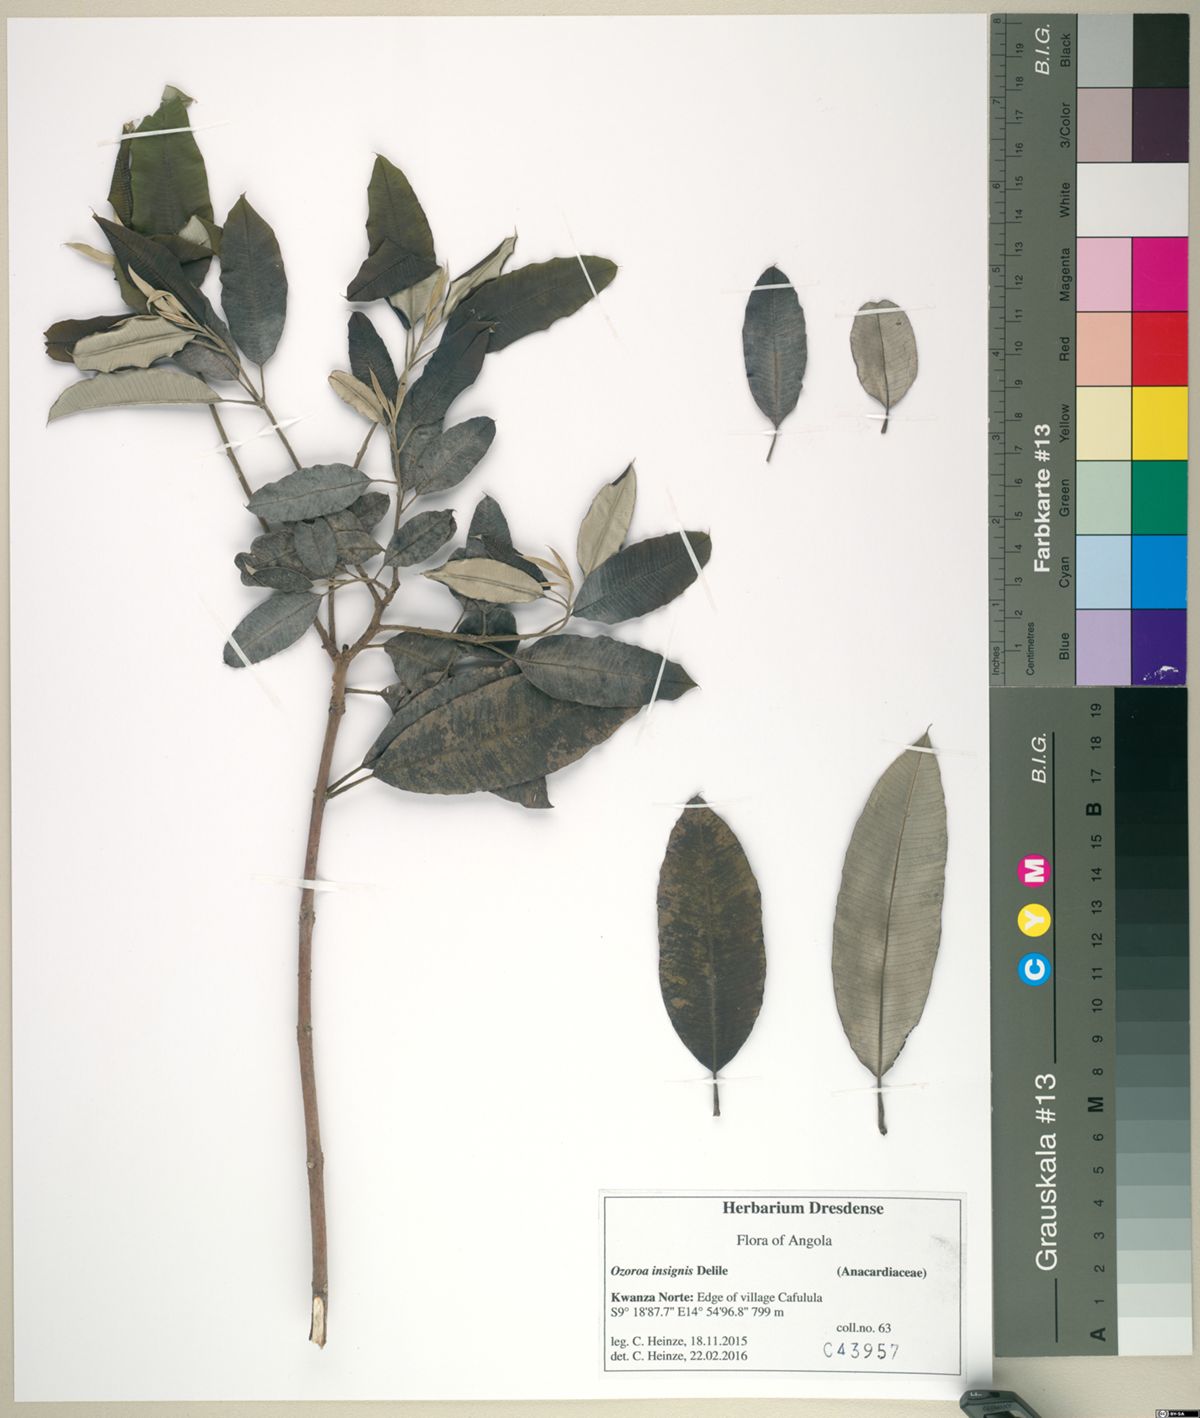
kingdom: Plantae
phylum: Tracheophyta
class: Magnoliopsida
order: Sapindales
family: Anacardiaceae
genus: Ozoroa
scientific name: Ozoroa insignis
